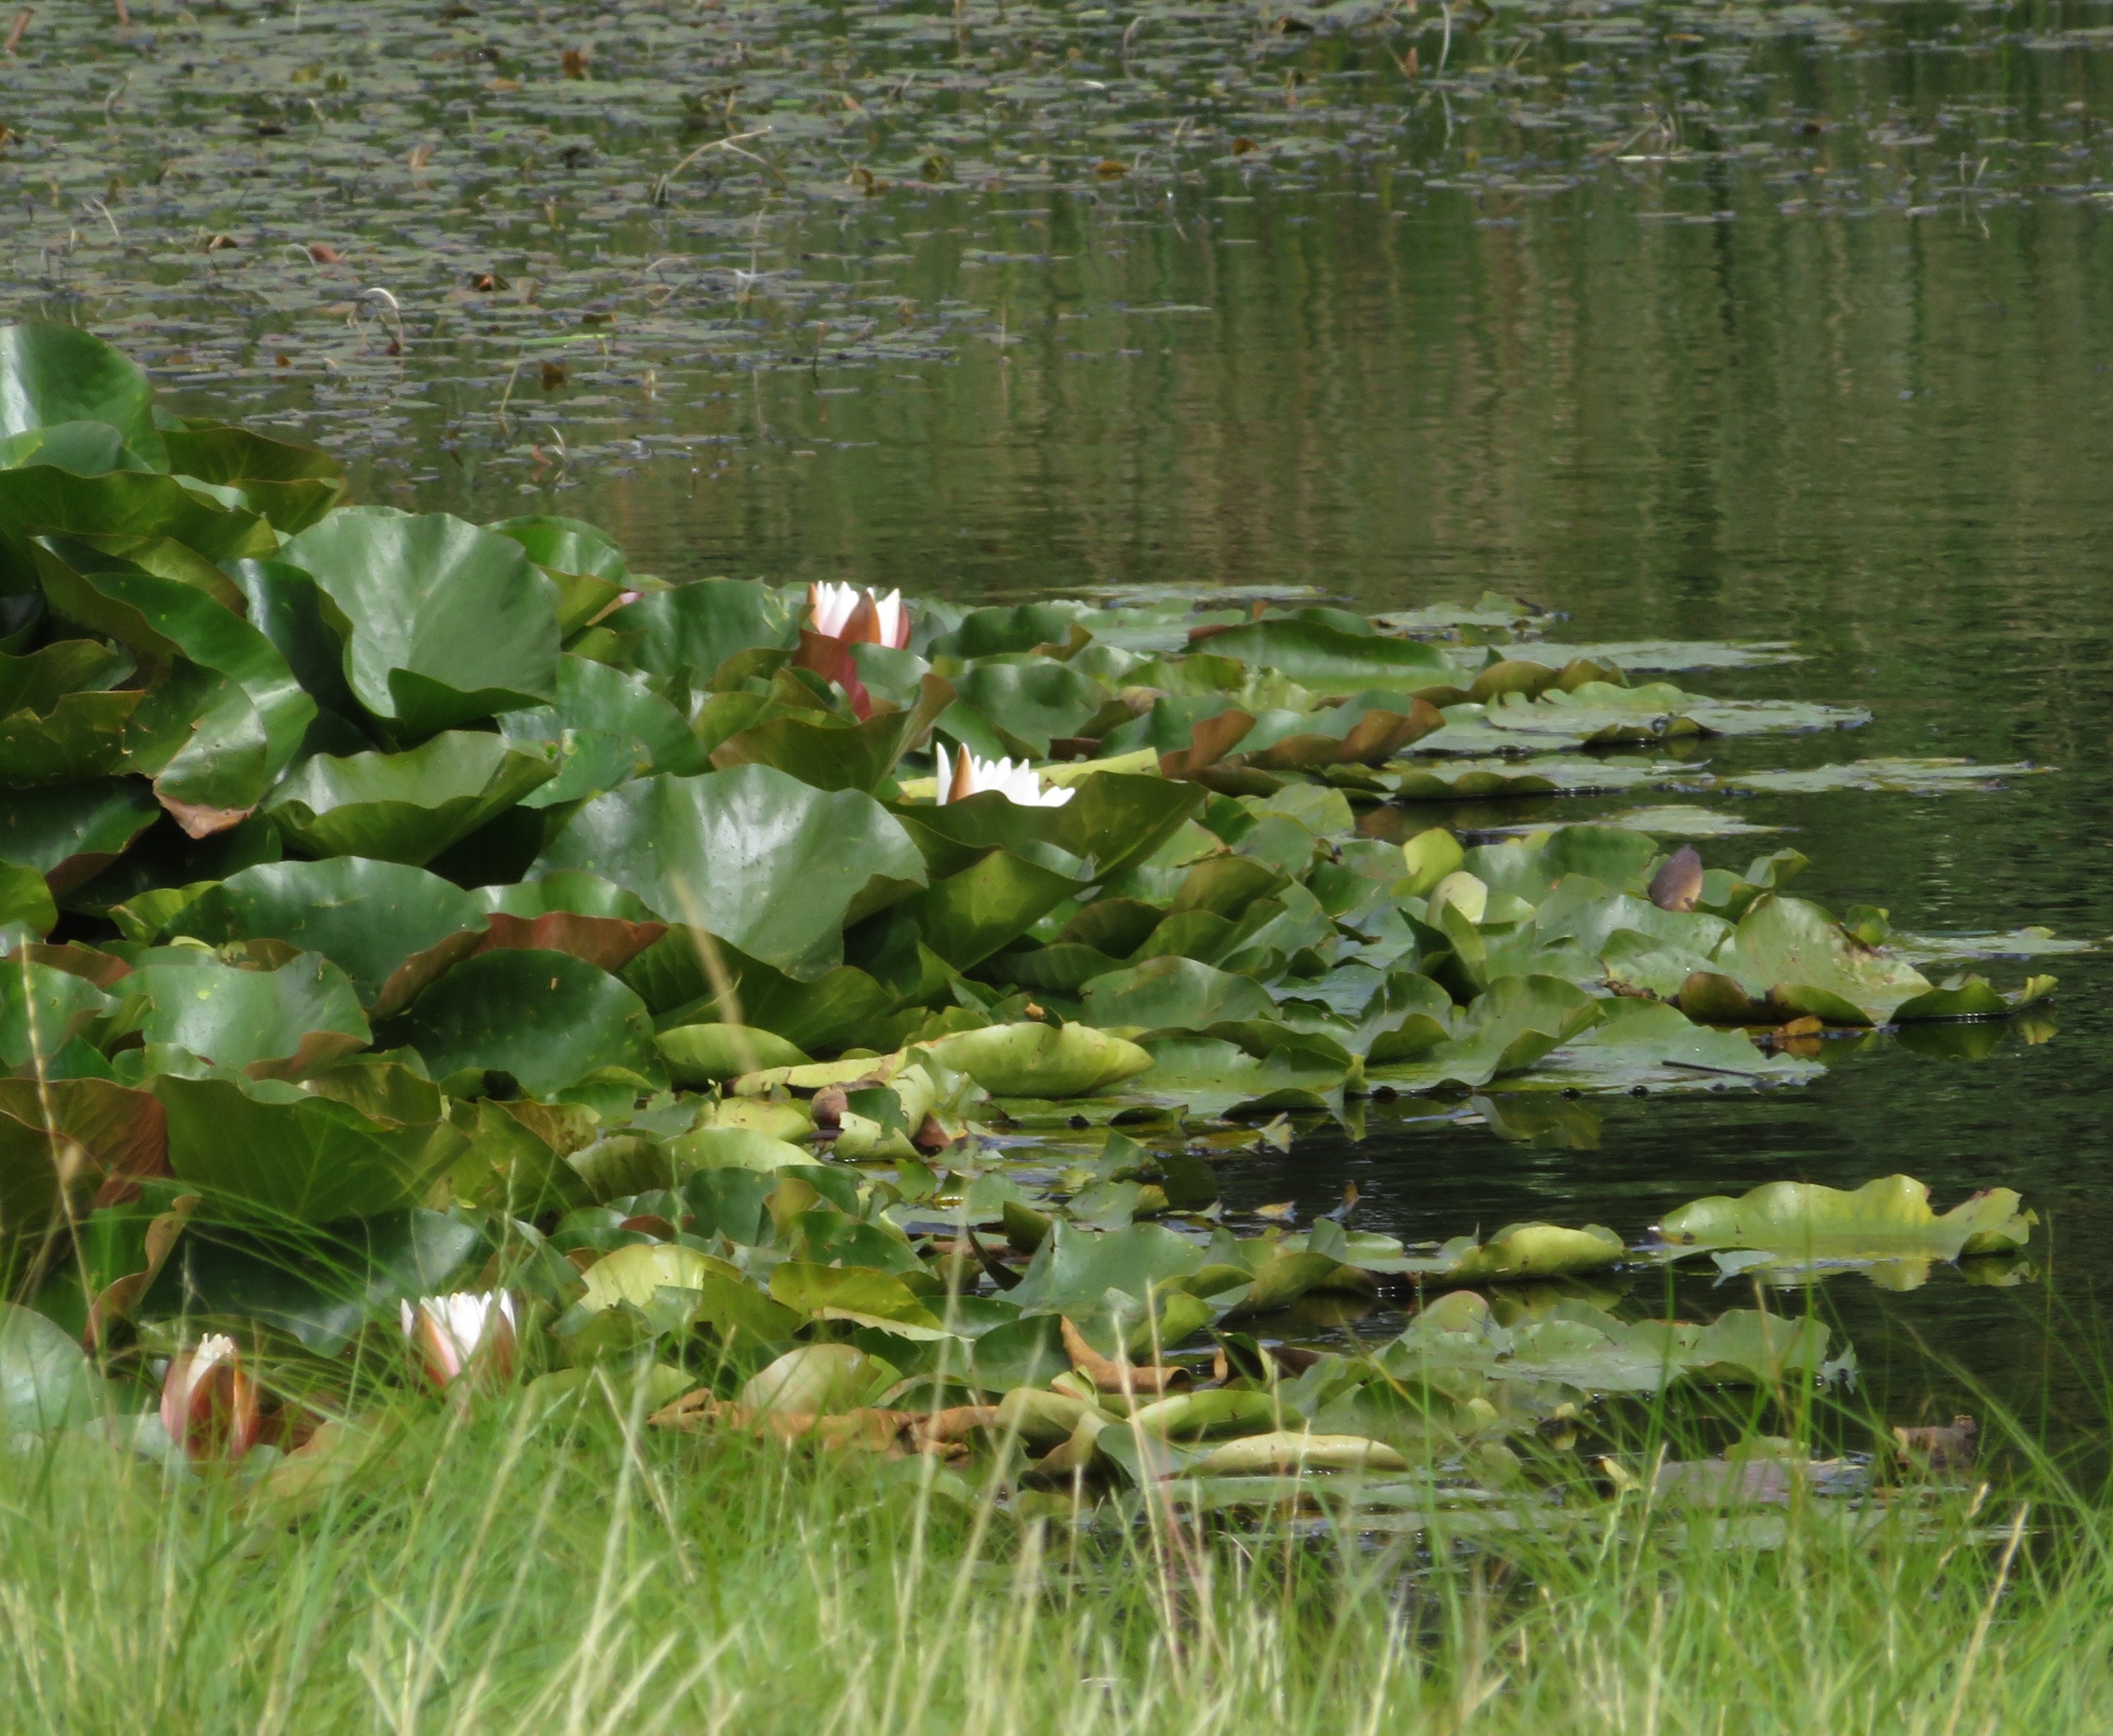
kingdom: Plantae
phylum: Tracheophyta
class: Magnoliopsida
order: Nymphaeales
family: Nymphaeaceae
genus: Nymphaea
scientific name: Nymphaea alba
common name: Hvid åkande
